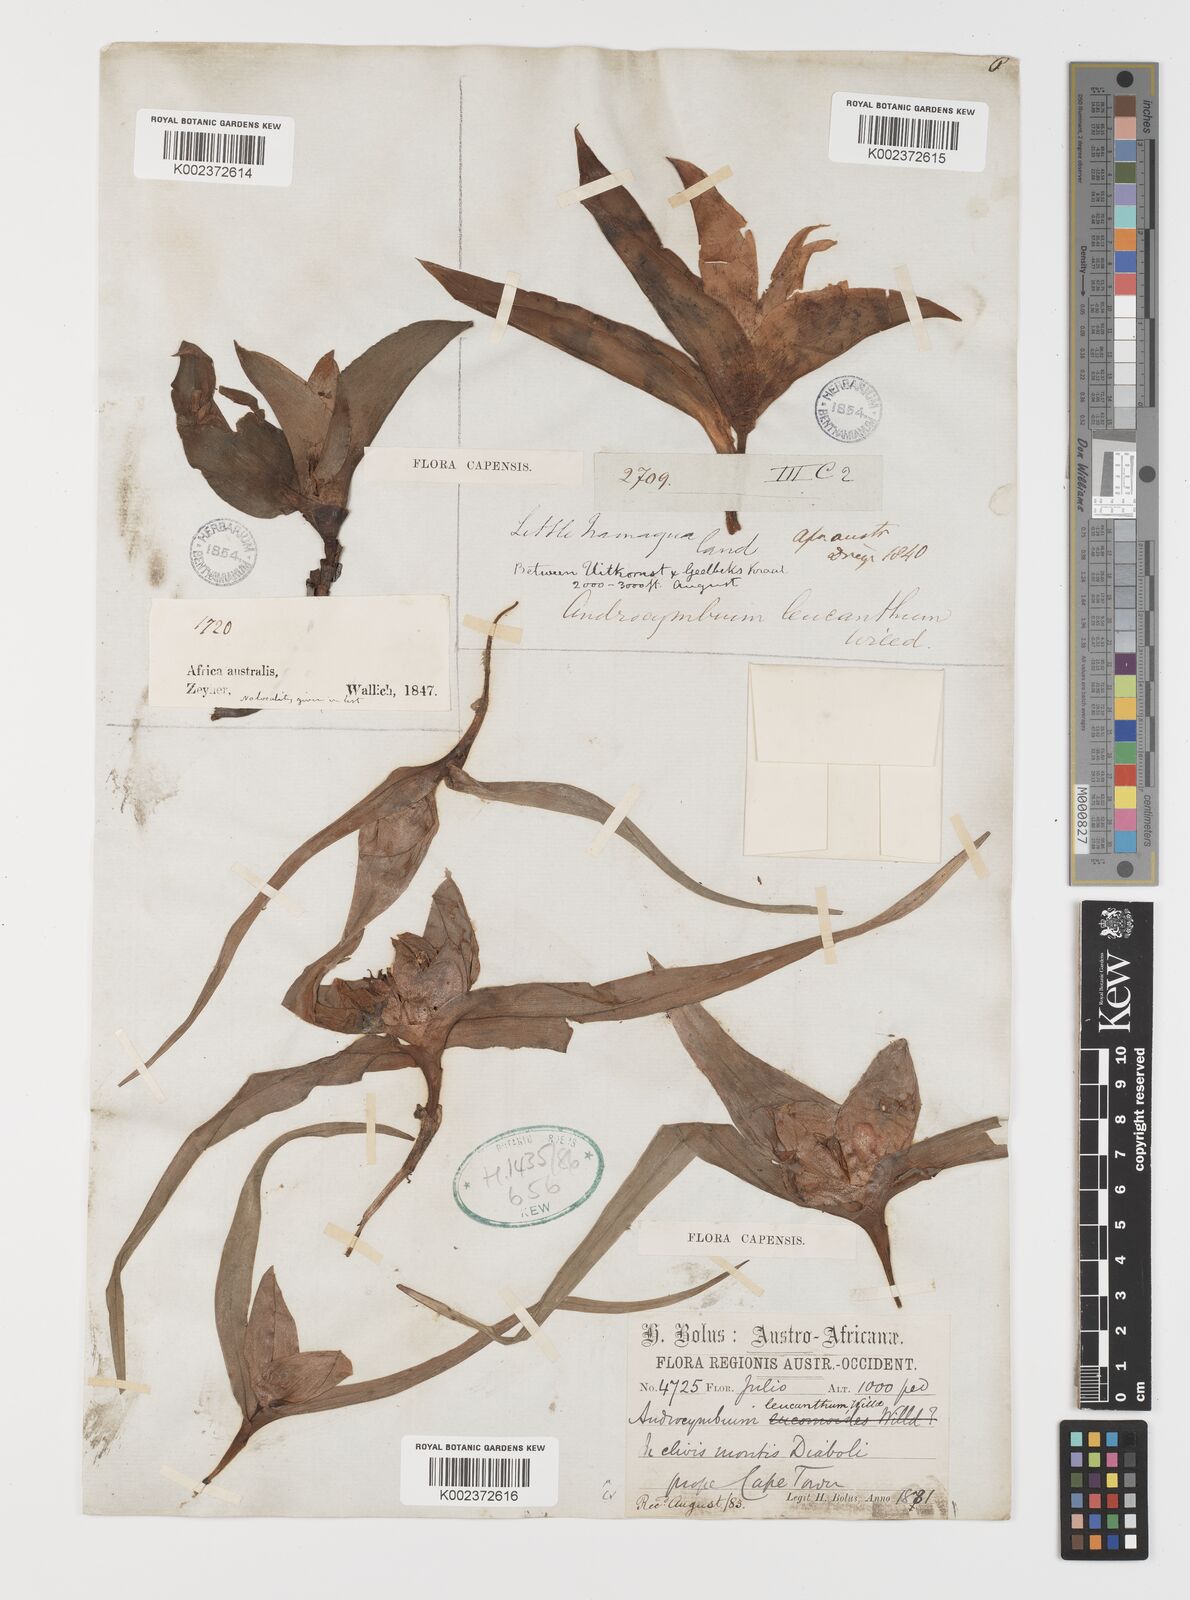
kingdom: Plantae
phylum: Tracheophyta
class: Liliopsida
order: Liliales
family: Colchicaceae
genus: Colchicum
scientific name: Colchicum capense
